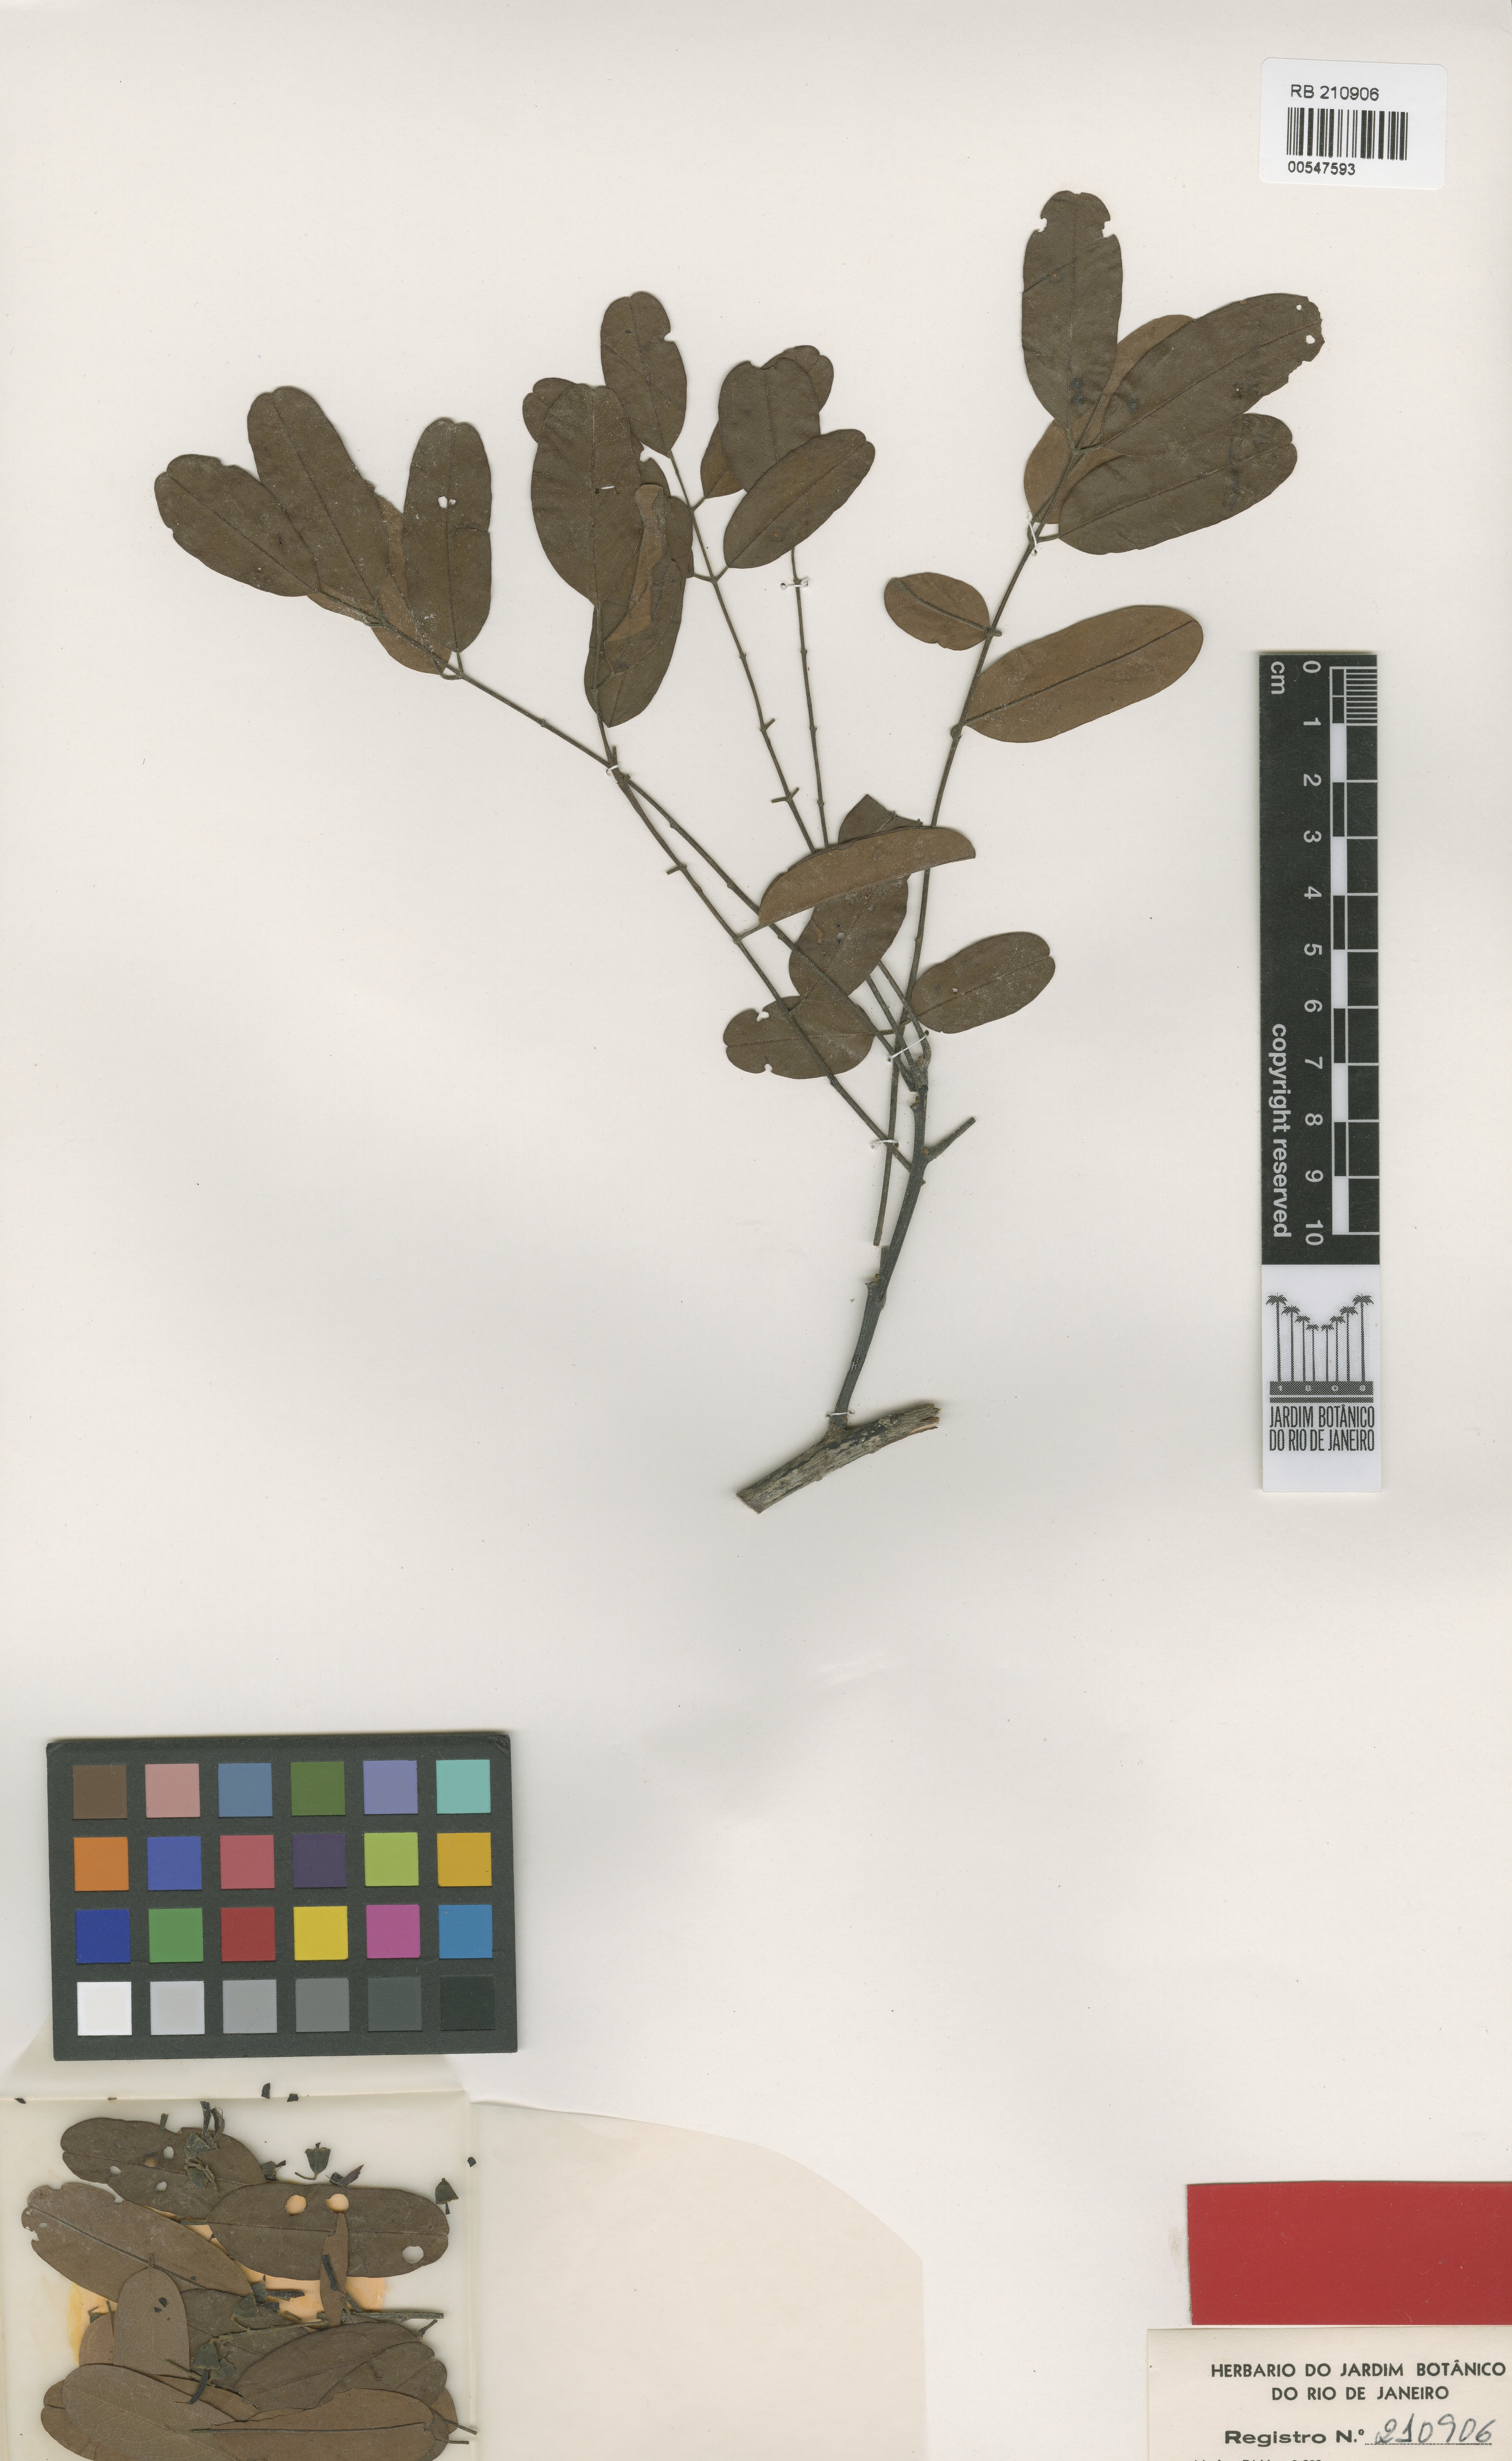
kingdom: Plantae
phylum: Tracheophyta
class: Magnoliopsida
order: Fabales
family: Fabaceae
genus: Hymenolobium
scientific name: Hymenolobium petraeum
